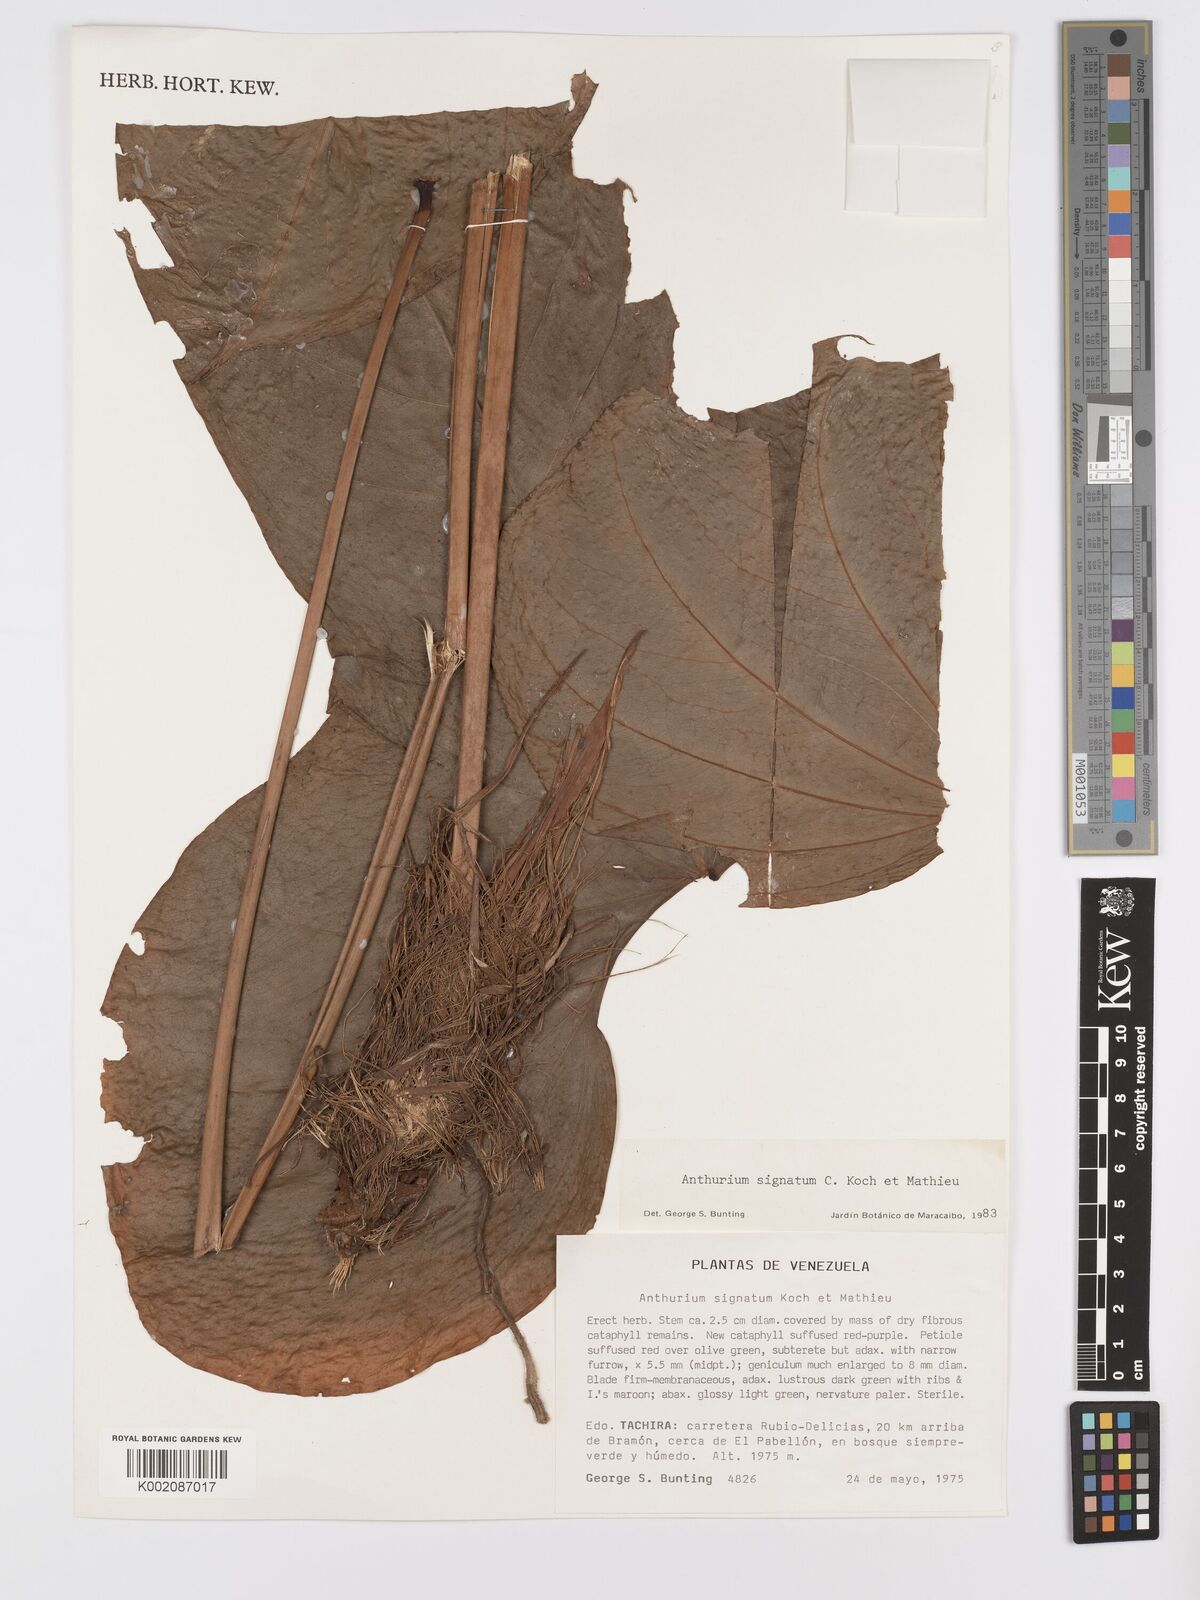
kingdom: Plantae
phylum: Tracheophyta
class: Liliopsida
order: Alismatales
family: Araceae
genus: Anthurium
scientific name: Anthurium signatum
